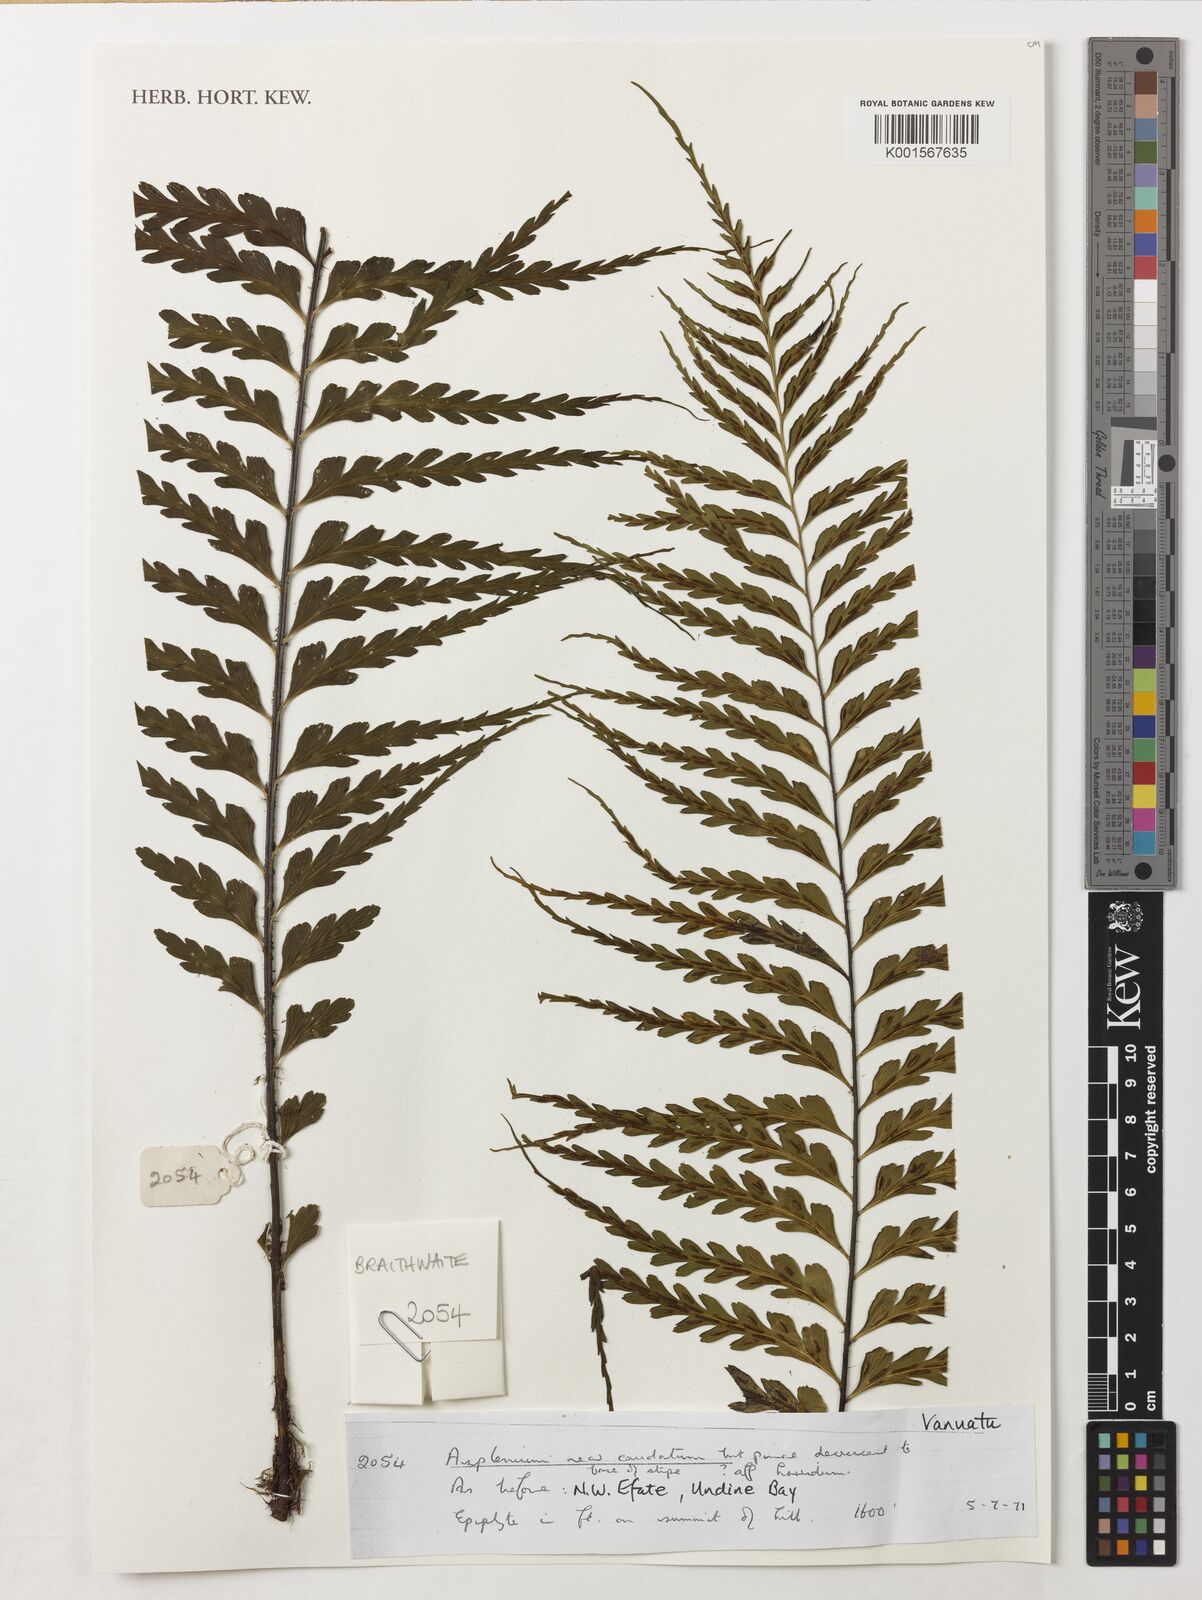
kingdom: Plantae
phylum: Tracheophyta
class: Polypodiopsida
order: Polypodiales
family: Aspleniaceae
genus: Asplenium
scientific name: Asplenium caudatum
